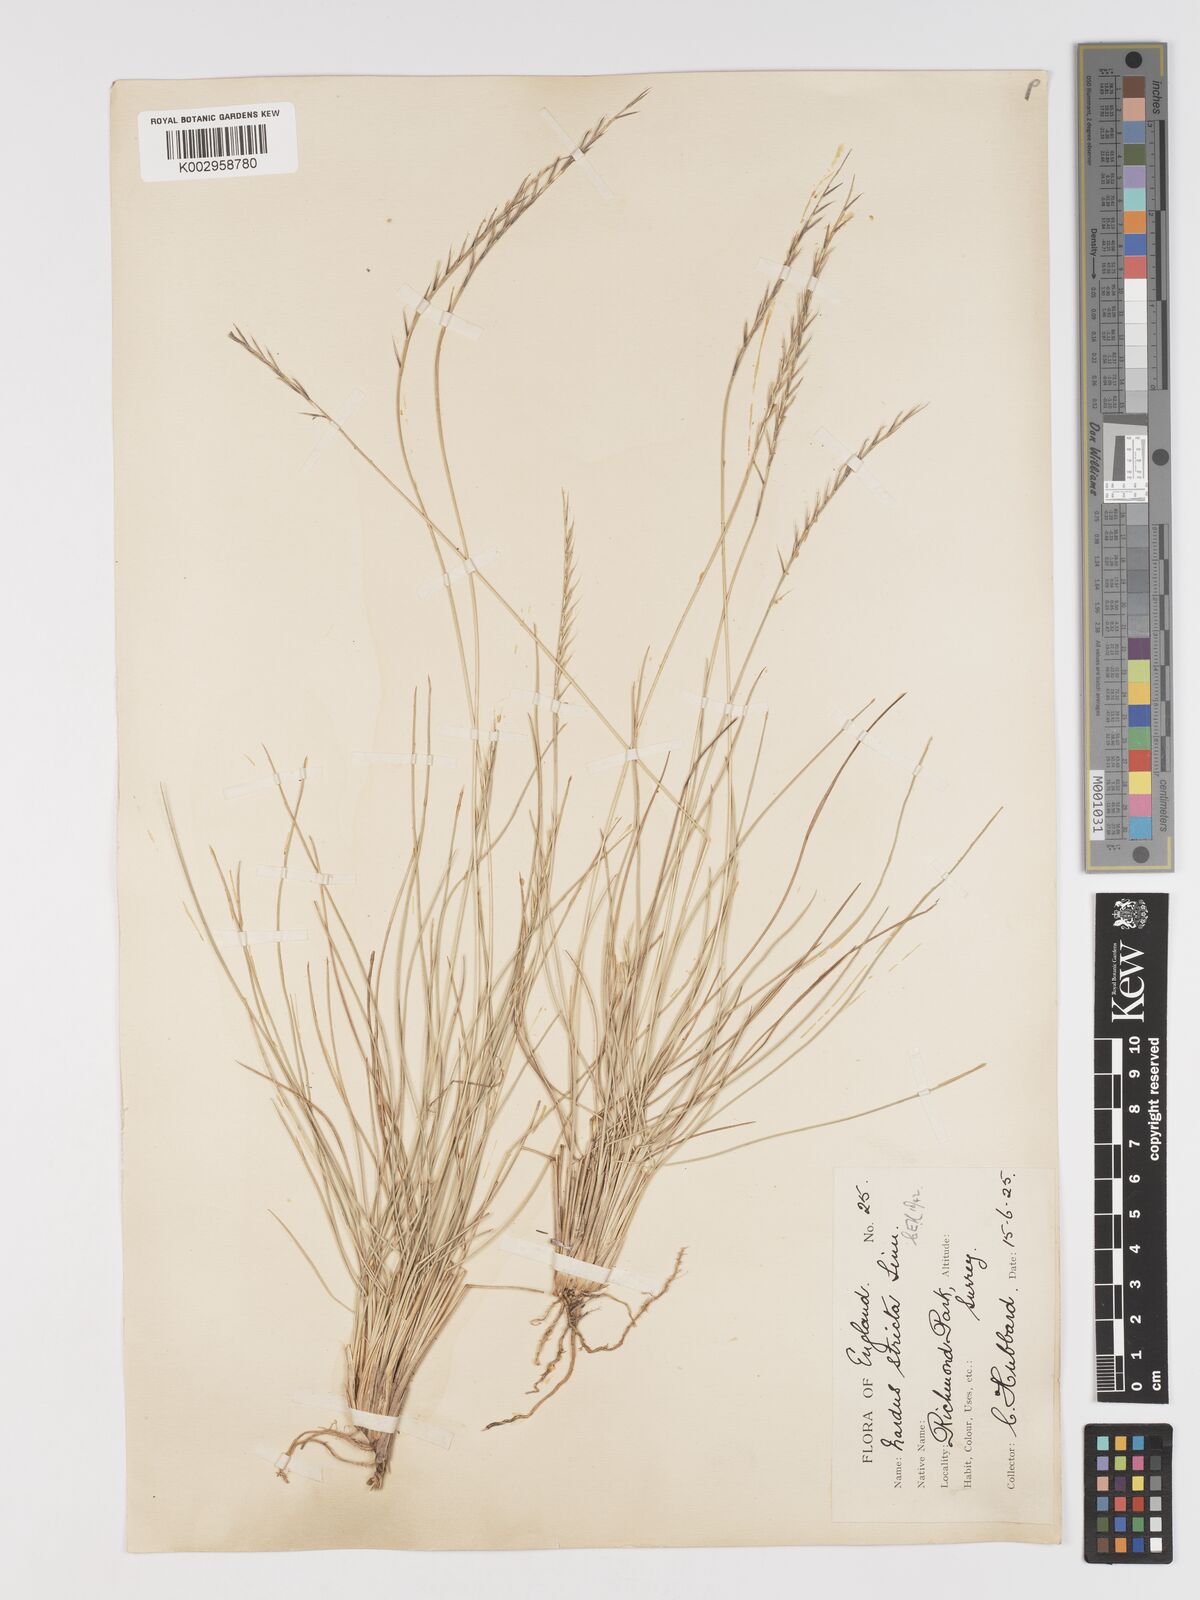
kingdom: Plantae
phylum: Tracheophyta
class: Liliopsida
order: Poales
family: Poaceae
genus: Nardus
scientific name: Nardus stricta
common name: Mat-grass
